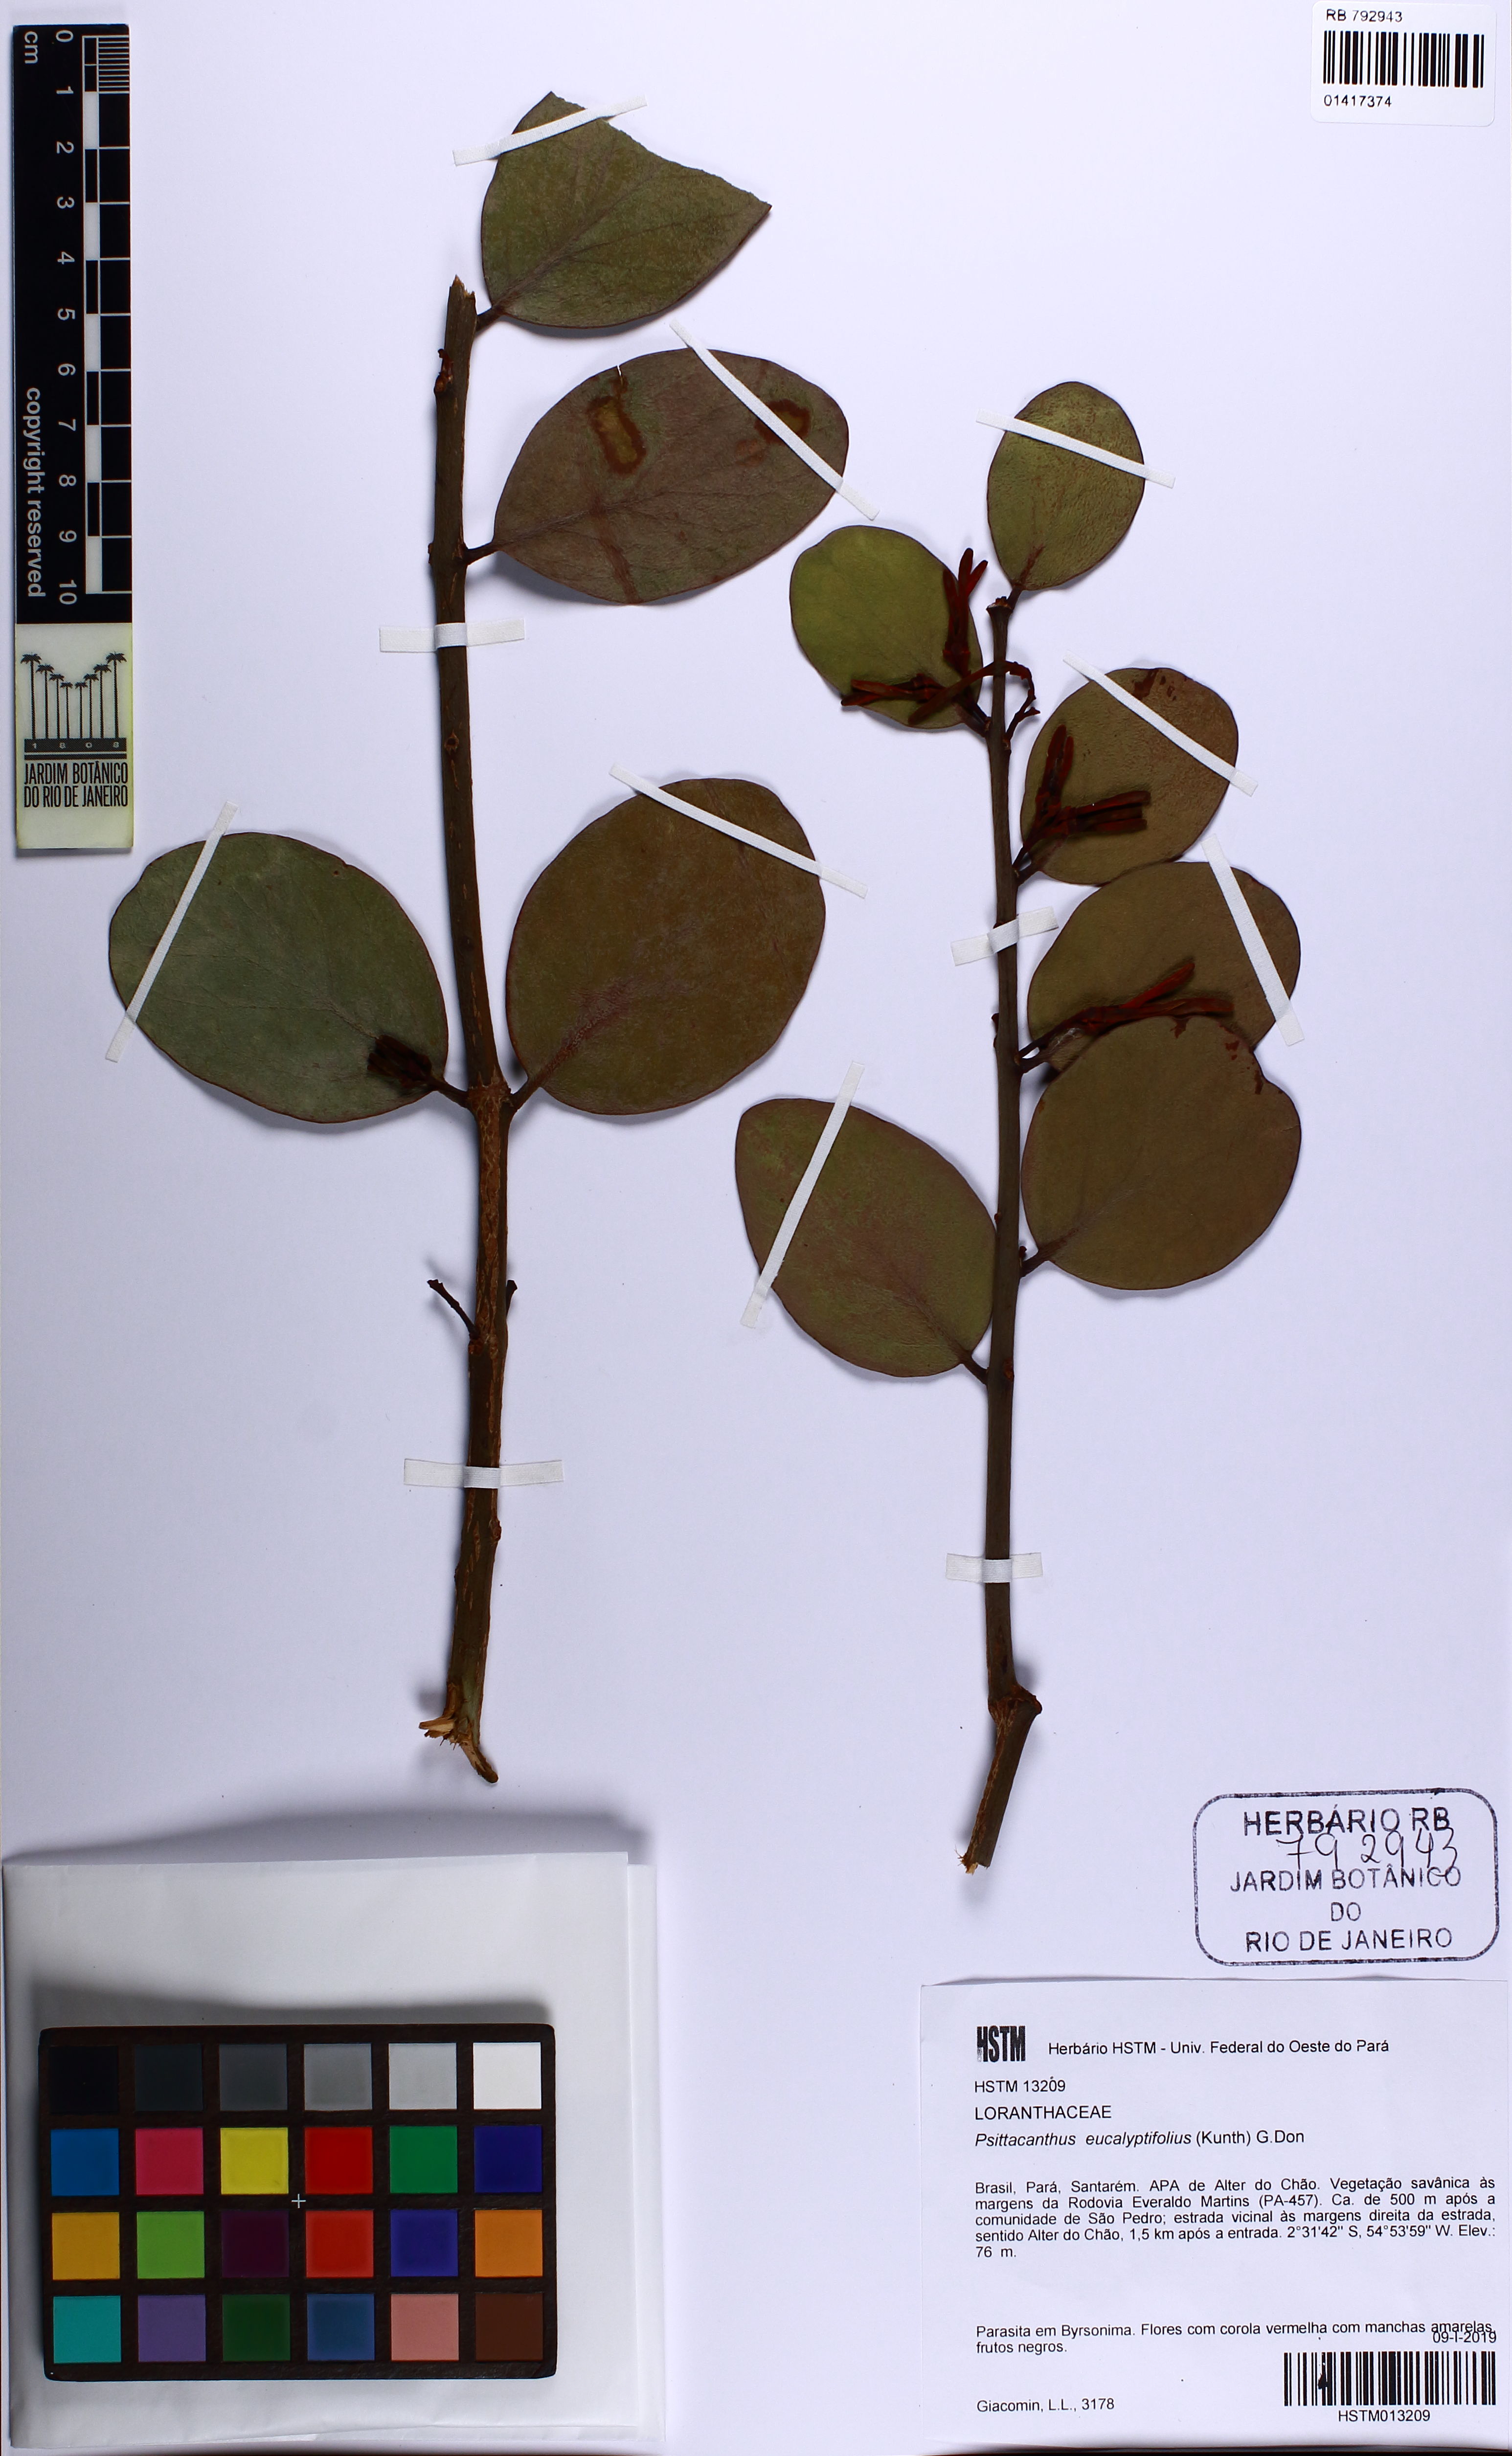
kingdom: Plantae
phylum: Tracheophyta
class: Magnoliopsida
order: Santalales
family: Loranthaceae
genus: Psittacanthus
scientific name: Psittacanthus eucalyptifolius
